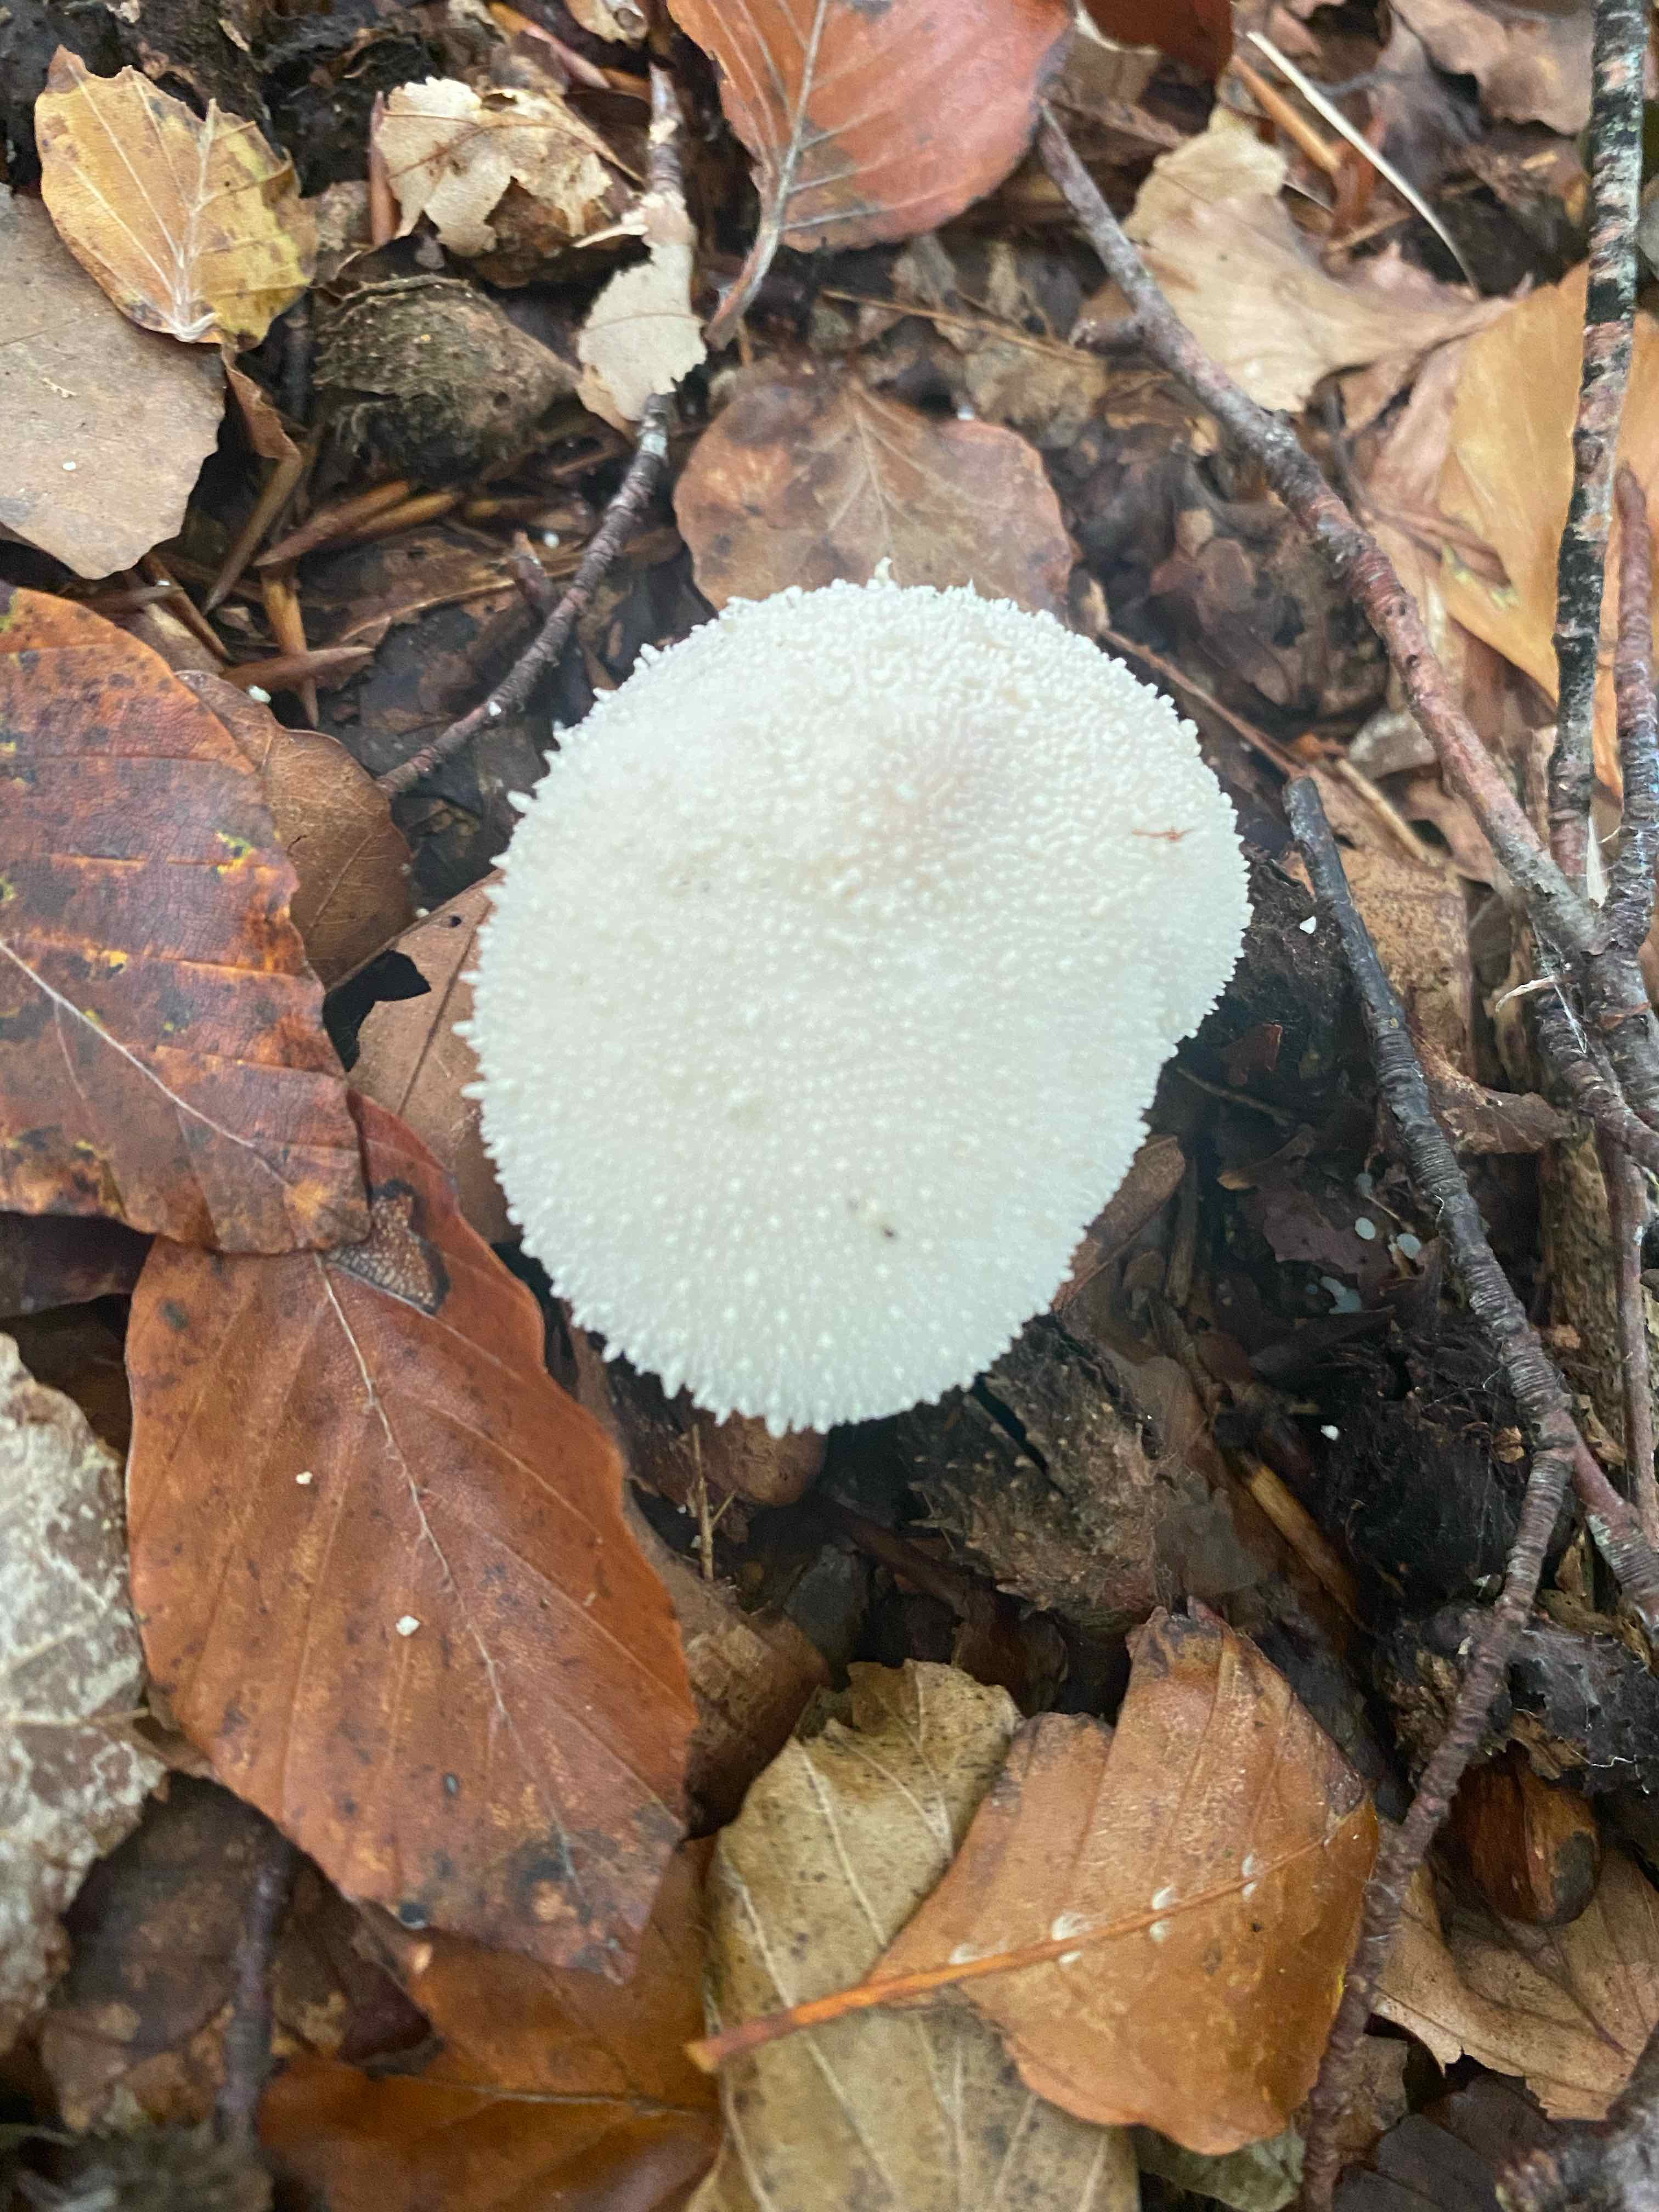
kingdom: Fungi
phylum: Basidiomycota
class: Agaricomycetes
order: Agaricales
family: Lycoperdaceae
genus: Lycoperdon
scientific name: Lycoperdon perlatum
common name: krystal-støvbold
